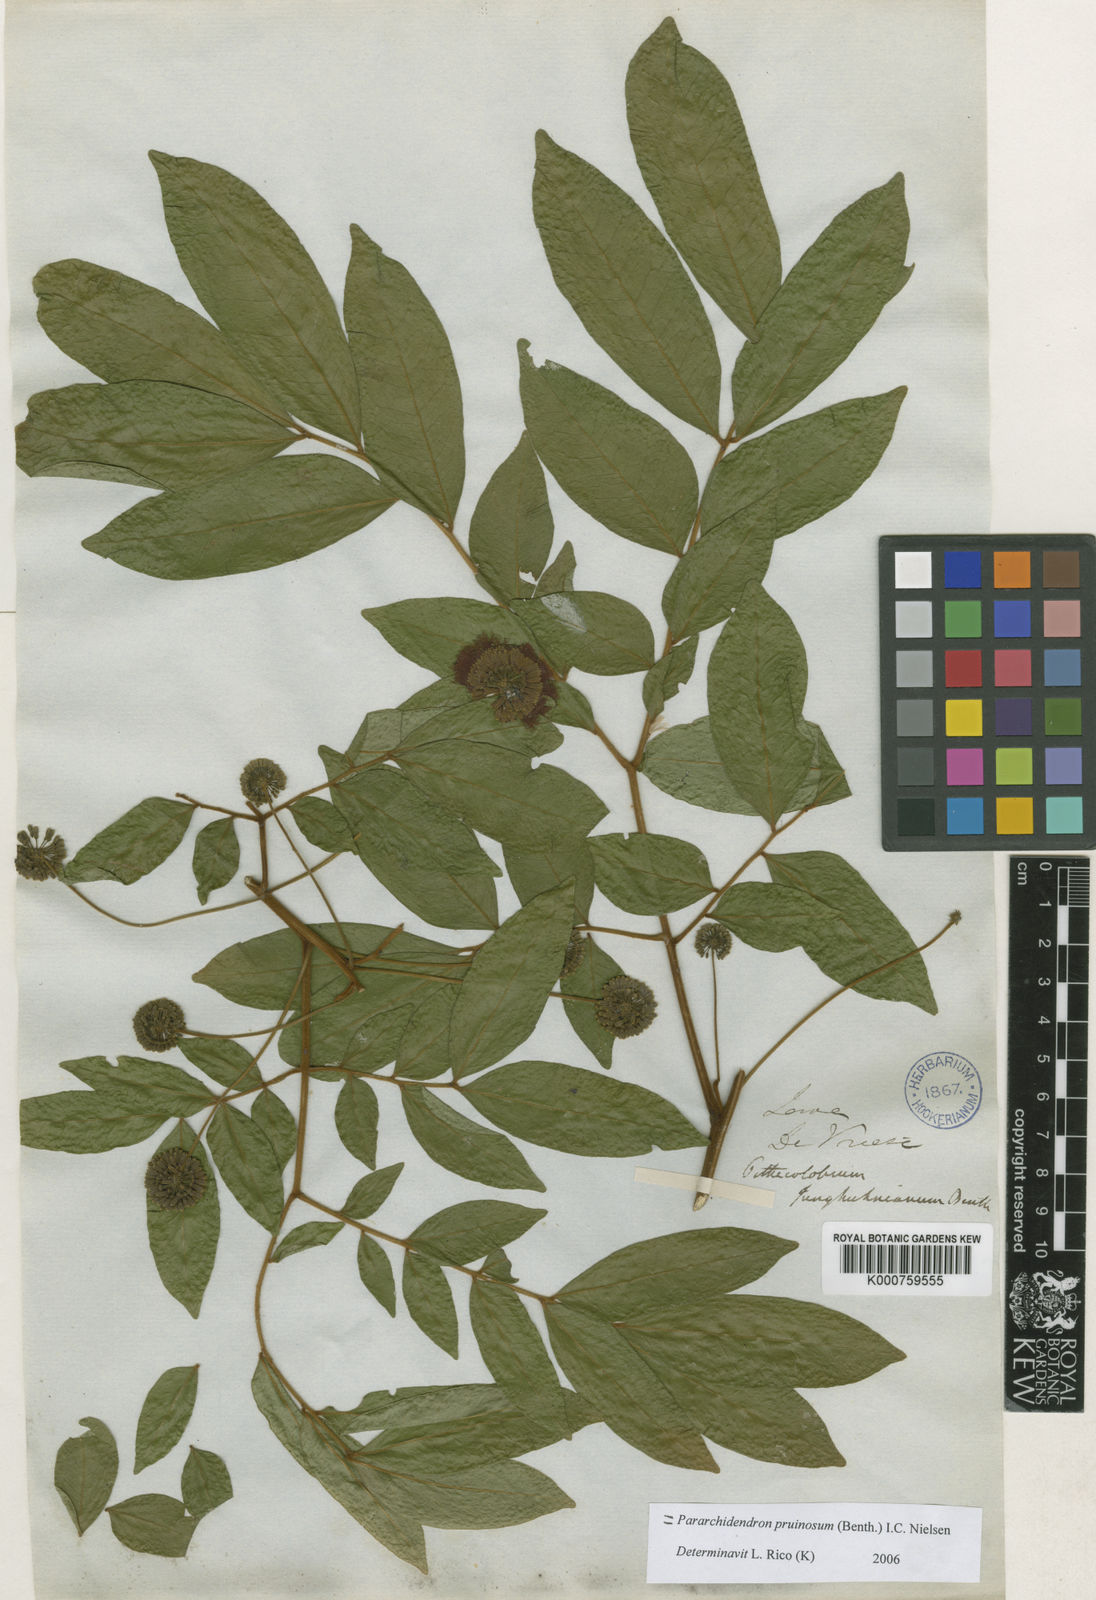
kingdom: Plantae
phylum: Tracheophyta
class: Magnoliopsida
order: Fabales
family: Fabaceae
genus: Pararchidendron
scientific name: Pararchidendron pruinosum
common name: Tulip siris
